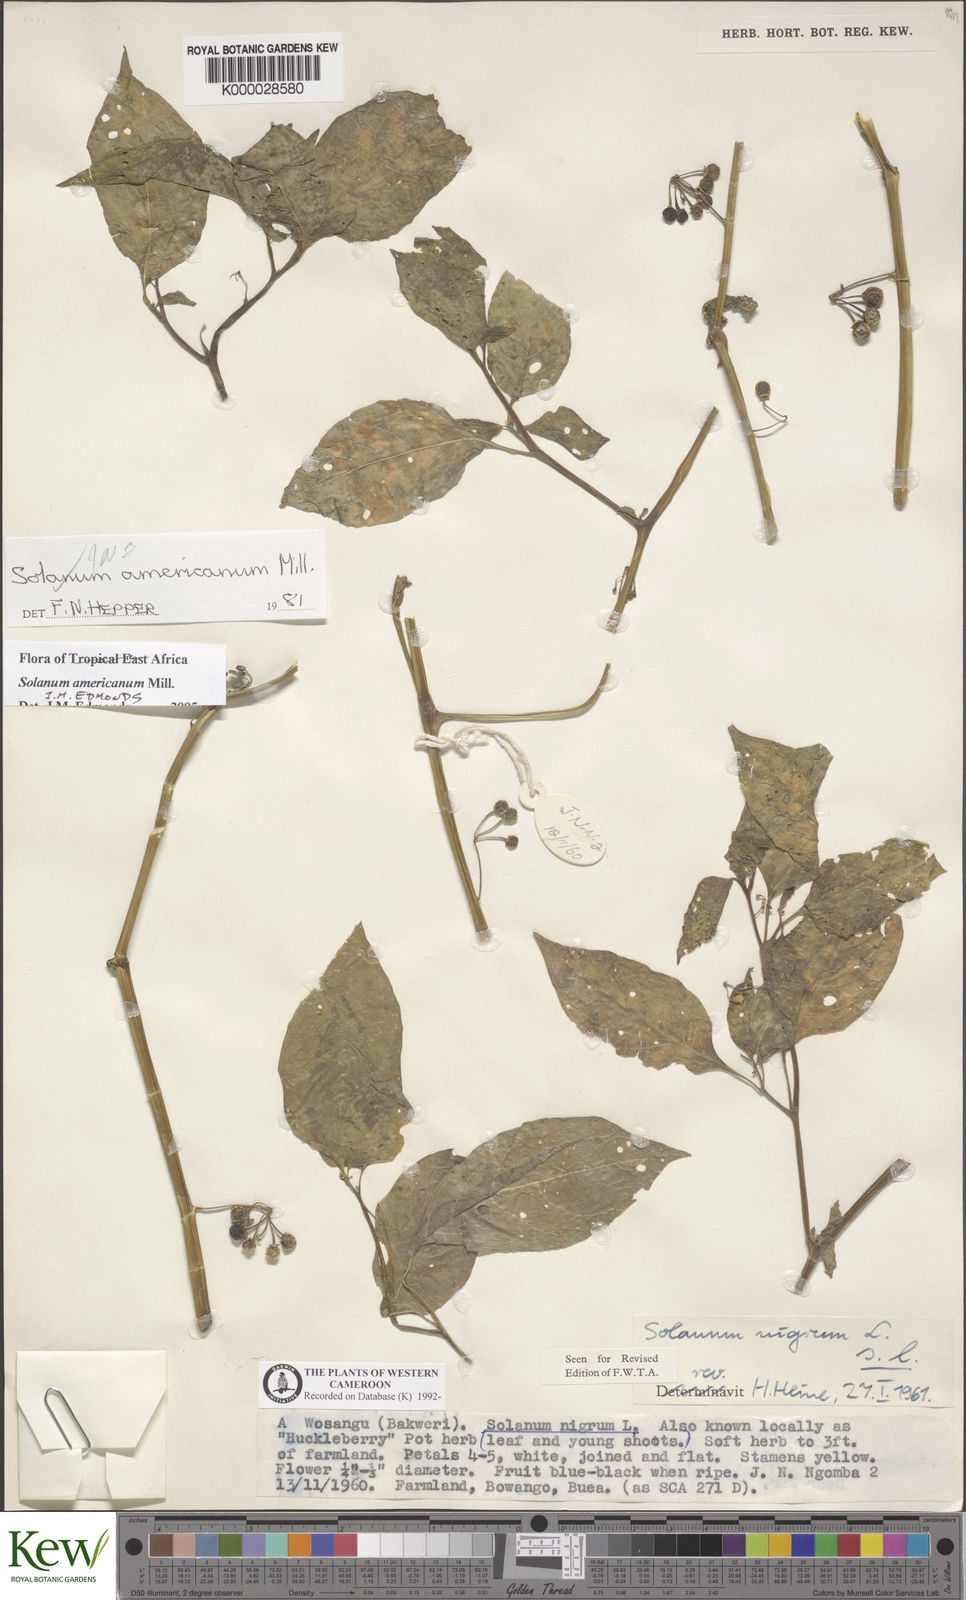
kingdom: Plantae
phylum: Tracheophyta
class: Magnoliopsida
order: Solanales
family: Solanaceae
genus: Solanum
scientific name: Solanum americanum
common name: American black nightshade
